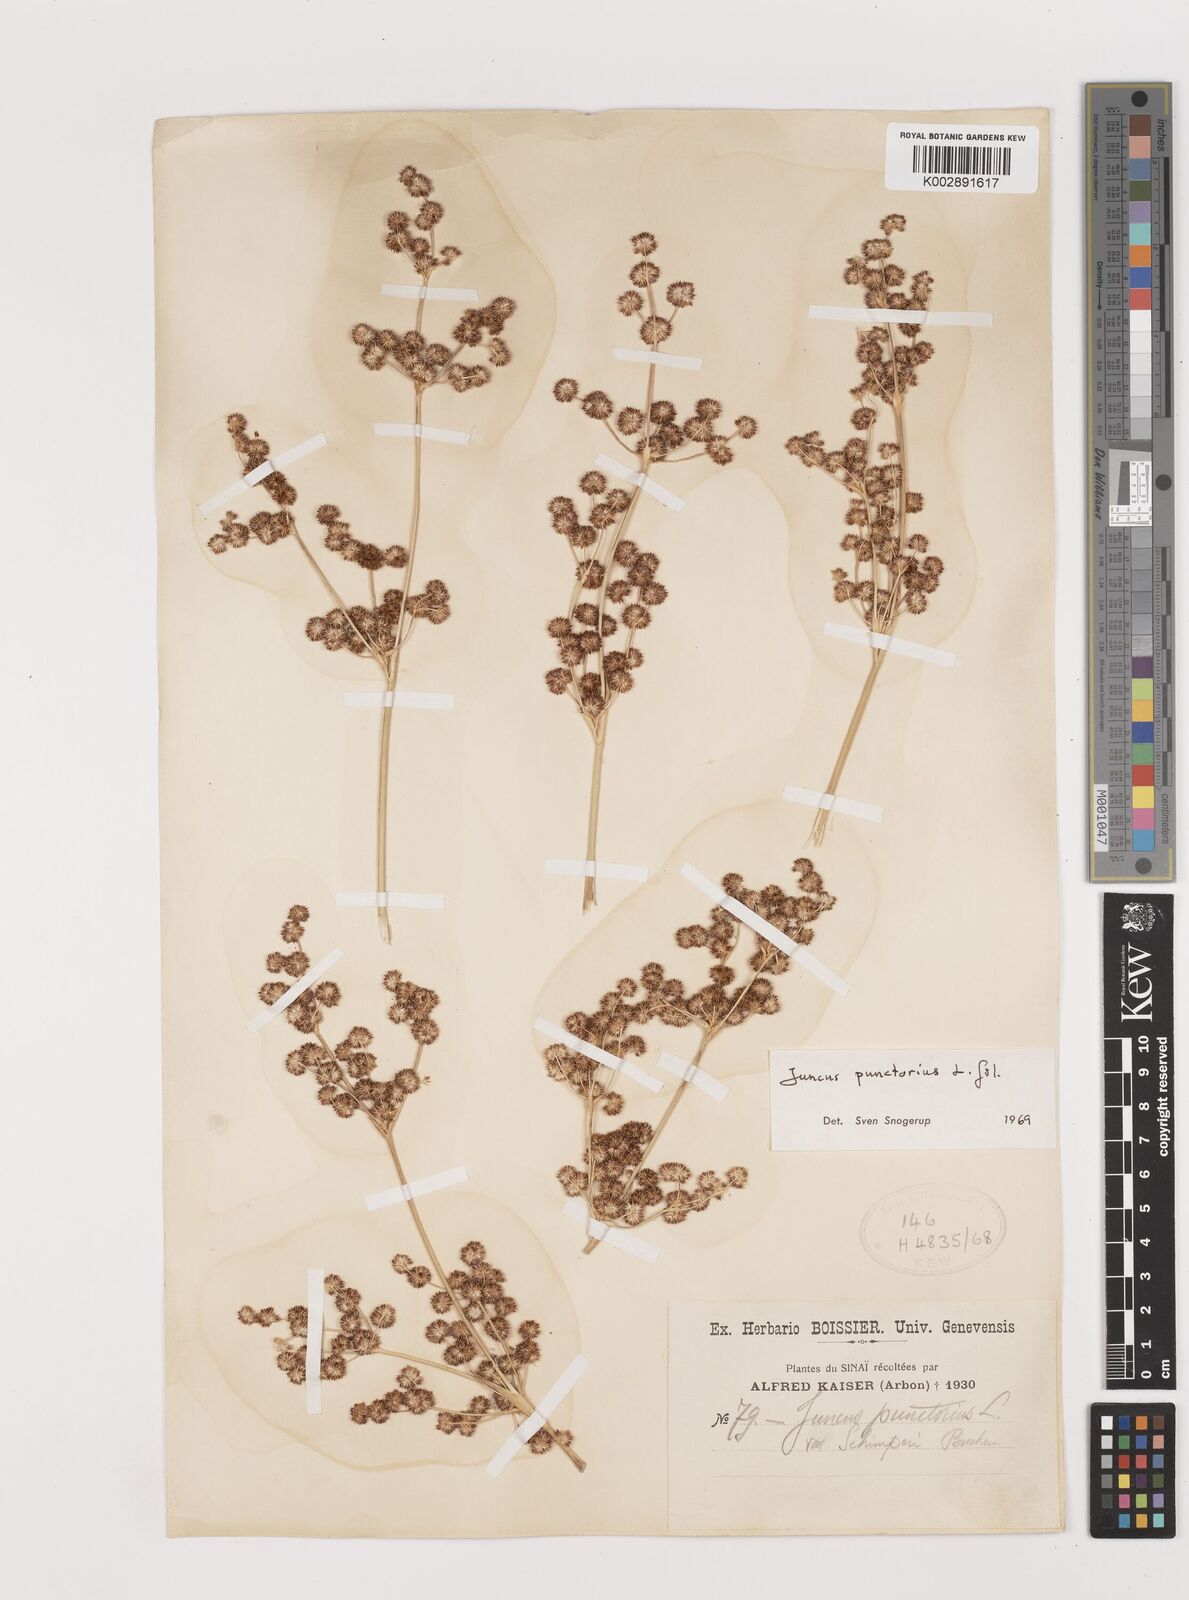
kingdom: Plantae
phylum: Tracheophyta
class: Liliopsida
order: Poales
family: Juncaceae
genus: Juncus
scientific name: Juncus punctorius
